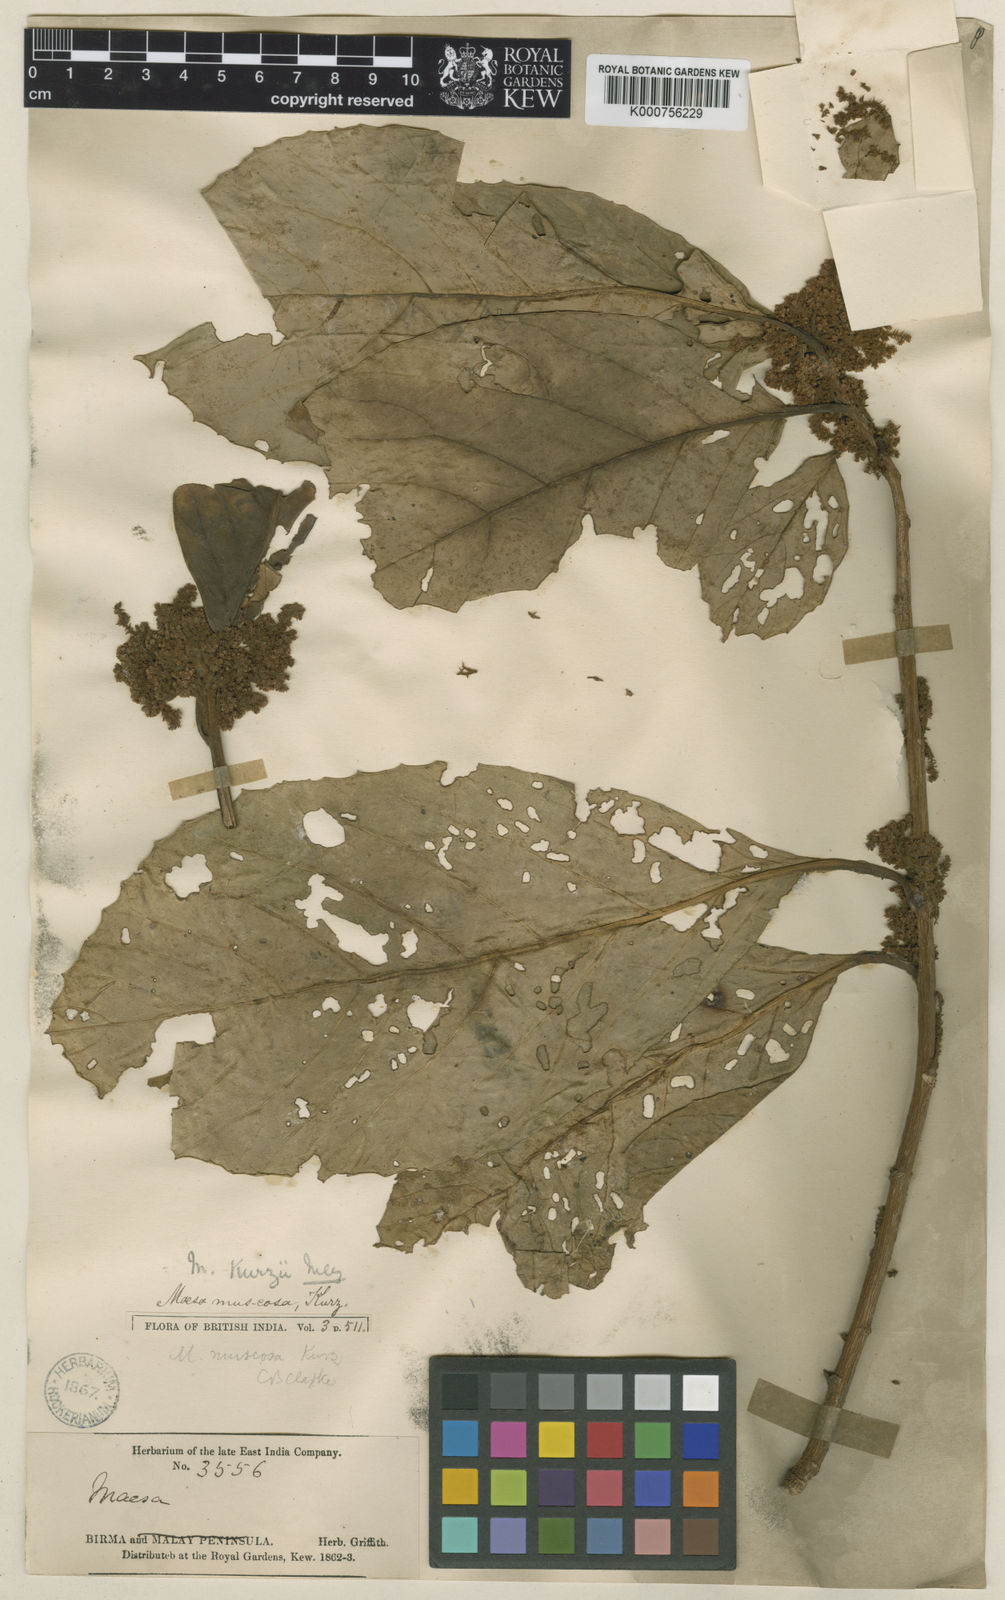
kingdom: Plantae
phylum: Tracheophyta
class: Magnoliopsida
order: Ericales
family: Primulaceae
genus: Maesa
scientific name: Maesa kurzii
